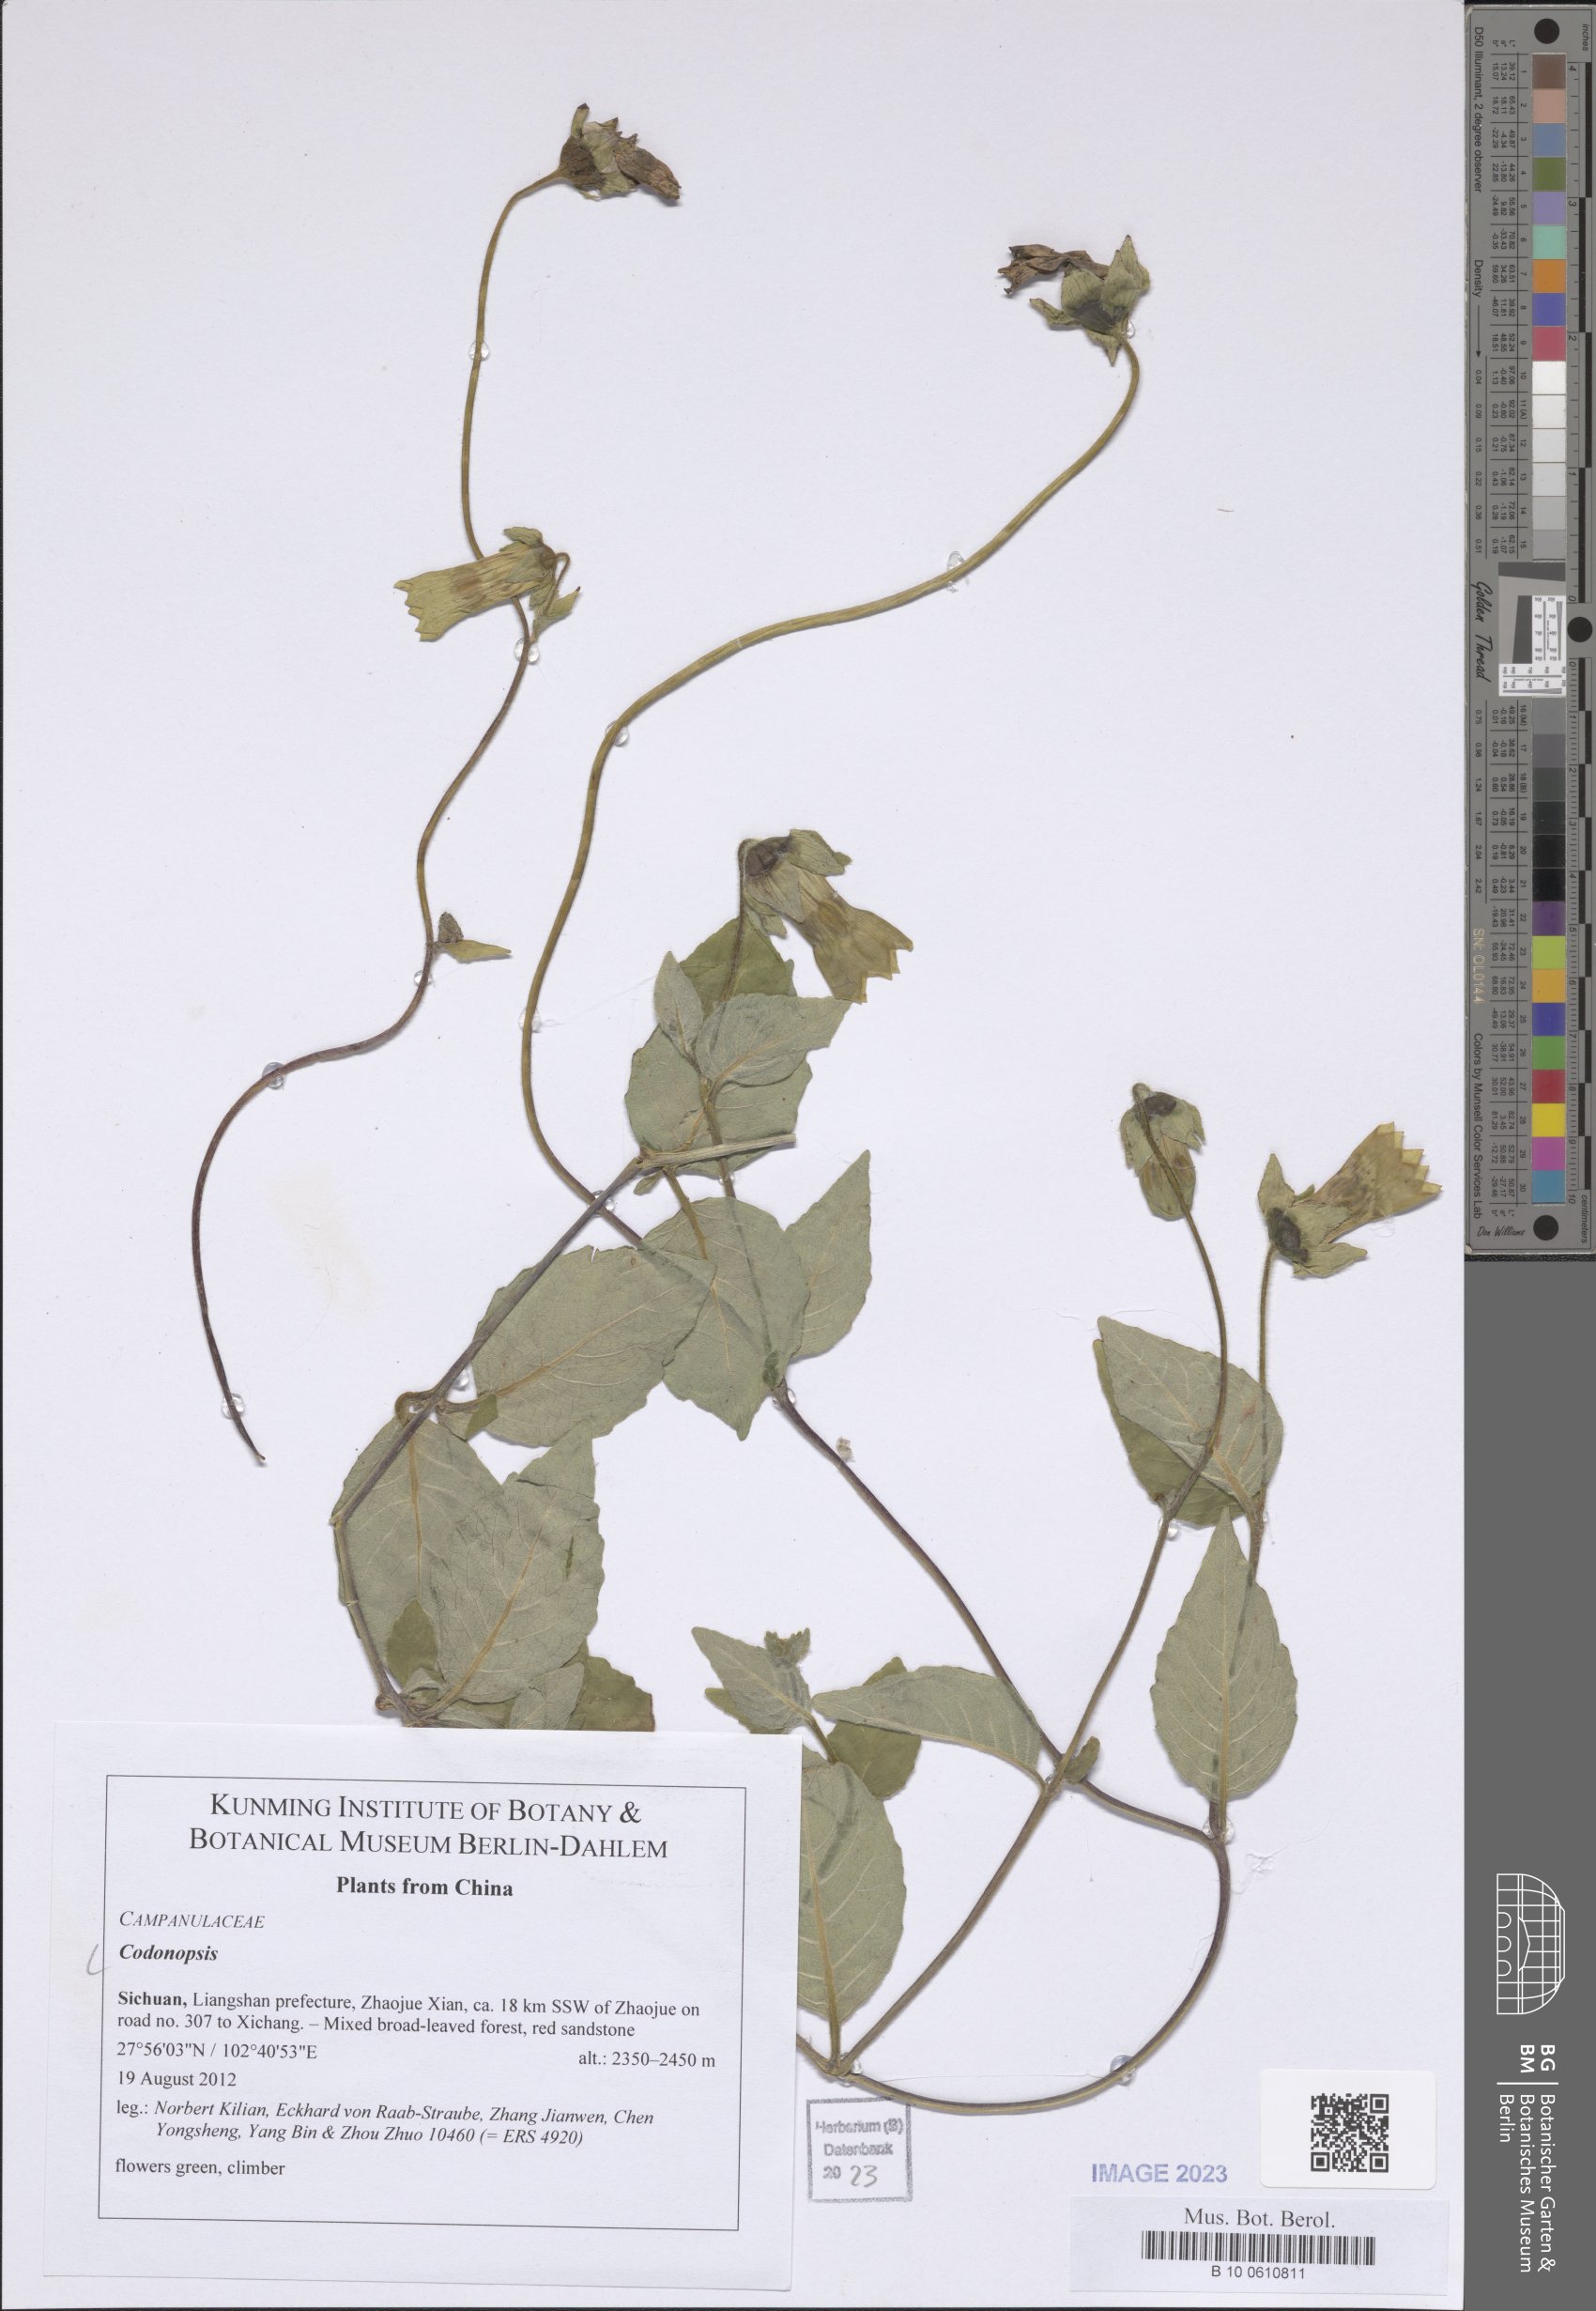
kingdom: Plantae
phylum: Tracheophyta
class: Magnoliopsida
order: Asterales
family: Campanulaceae
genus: Codonopsis
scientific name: Codonopsis
